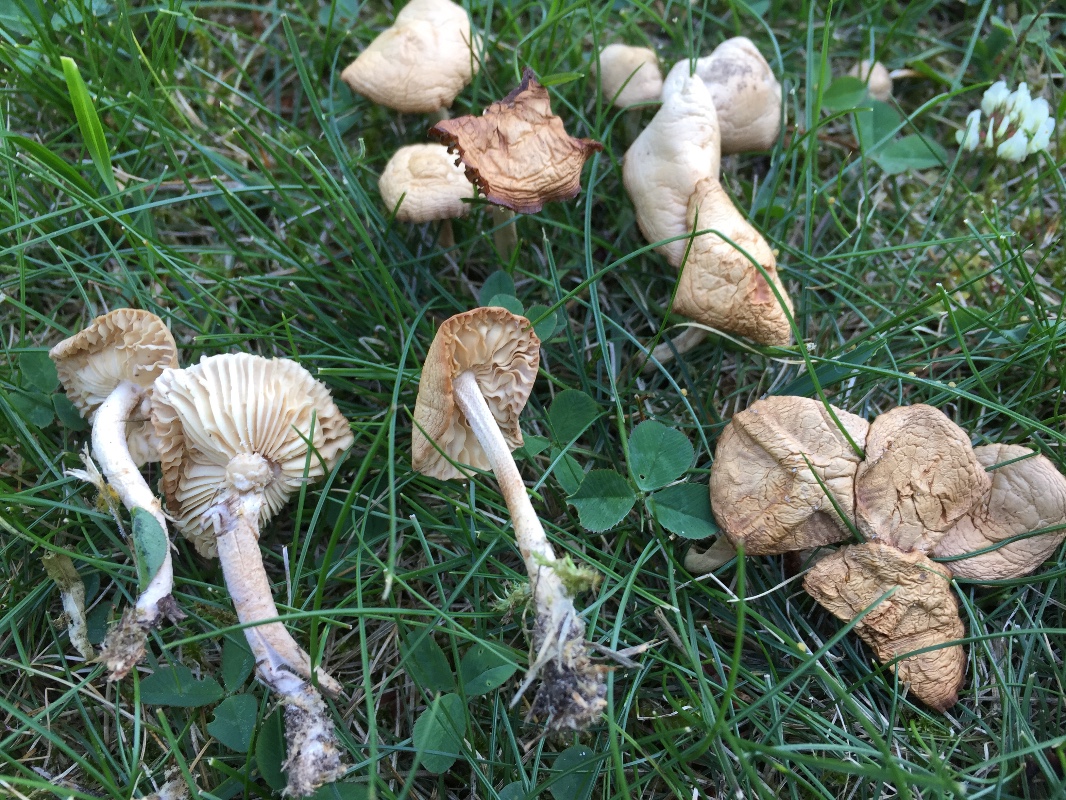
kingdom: Fungi
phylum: Basidiomycota
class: Agaricomycetes
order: Agaricales
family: Marasmiaceae
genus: Marasmius
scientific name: Marasmius oreades
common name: elledans-bruskhat
